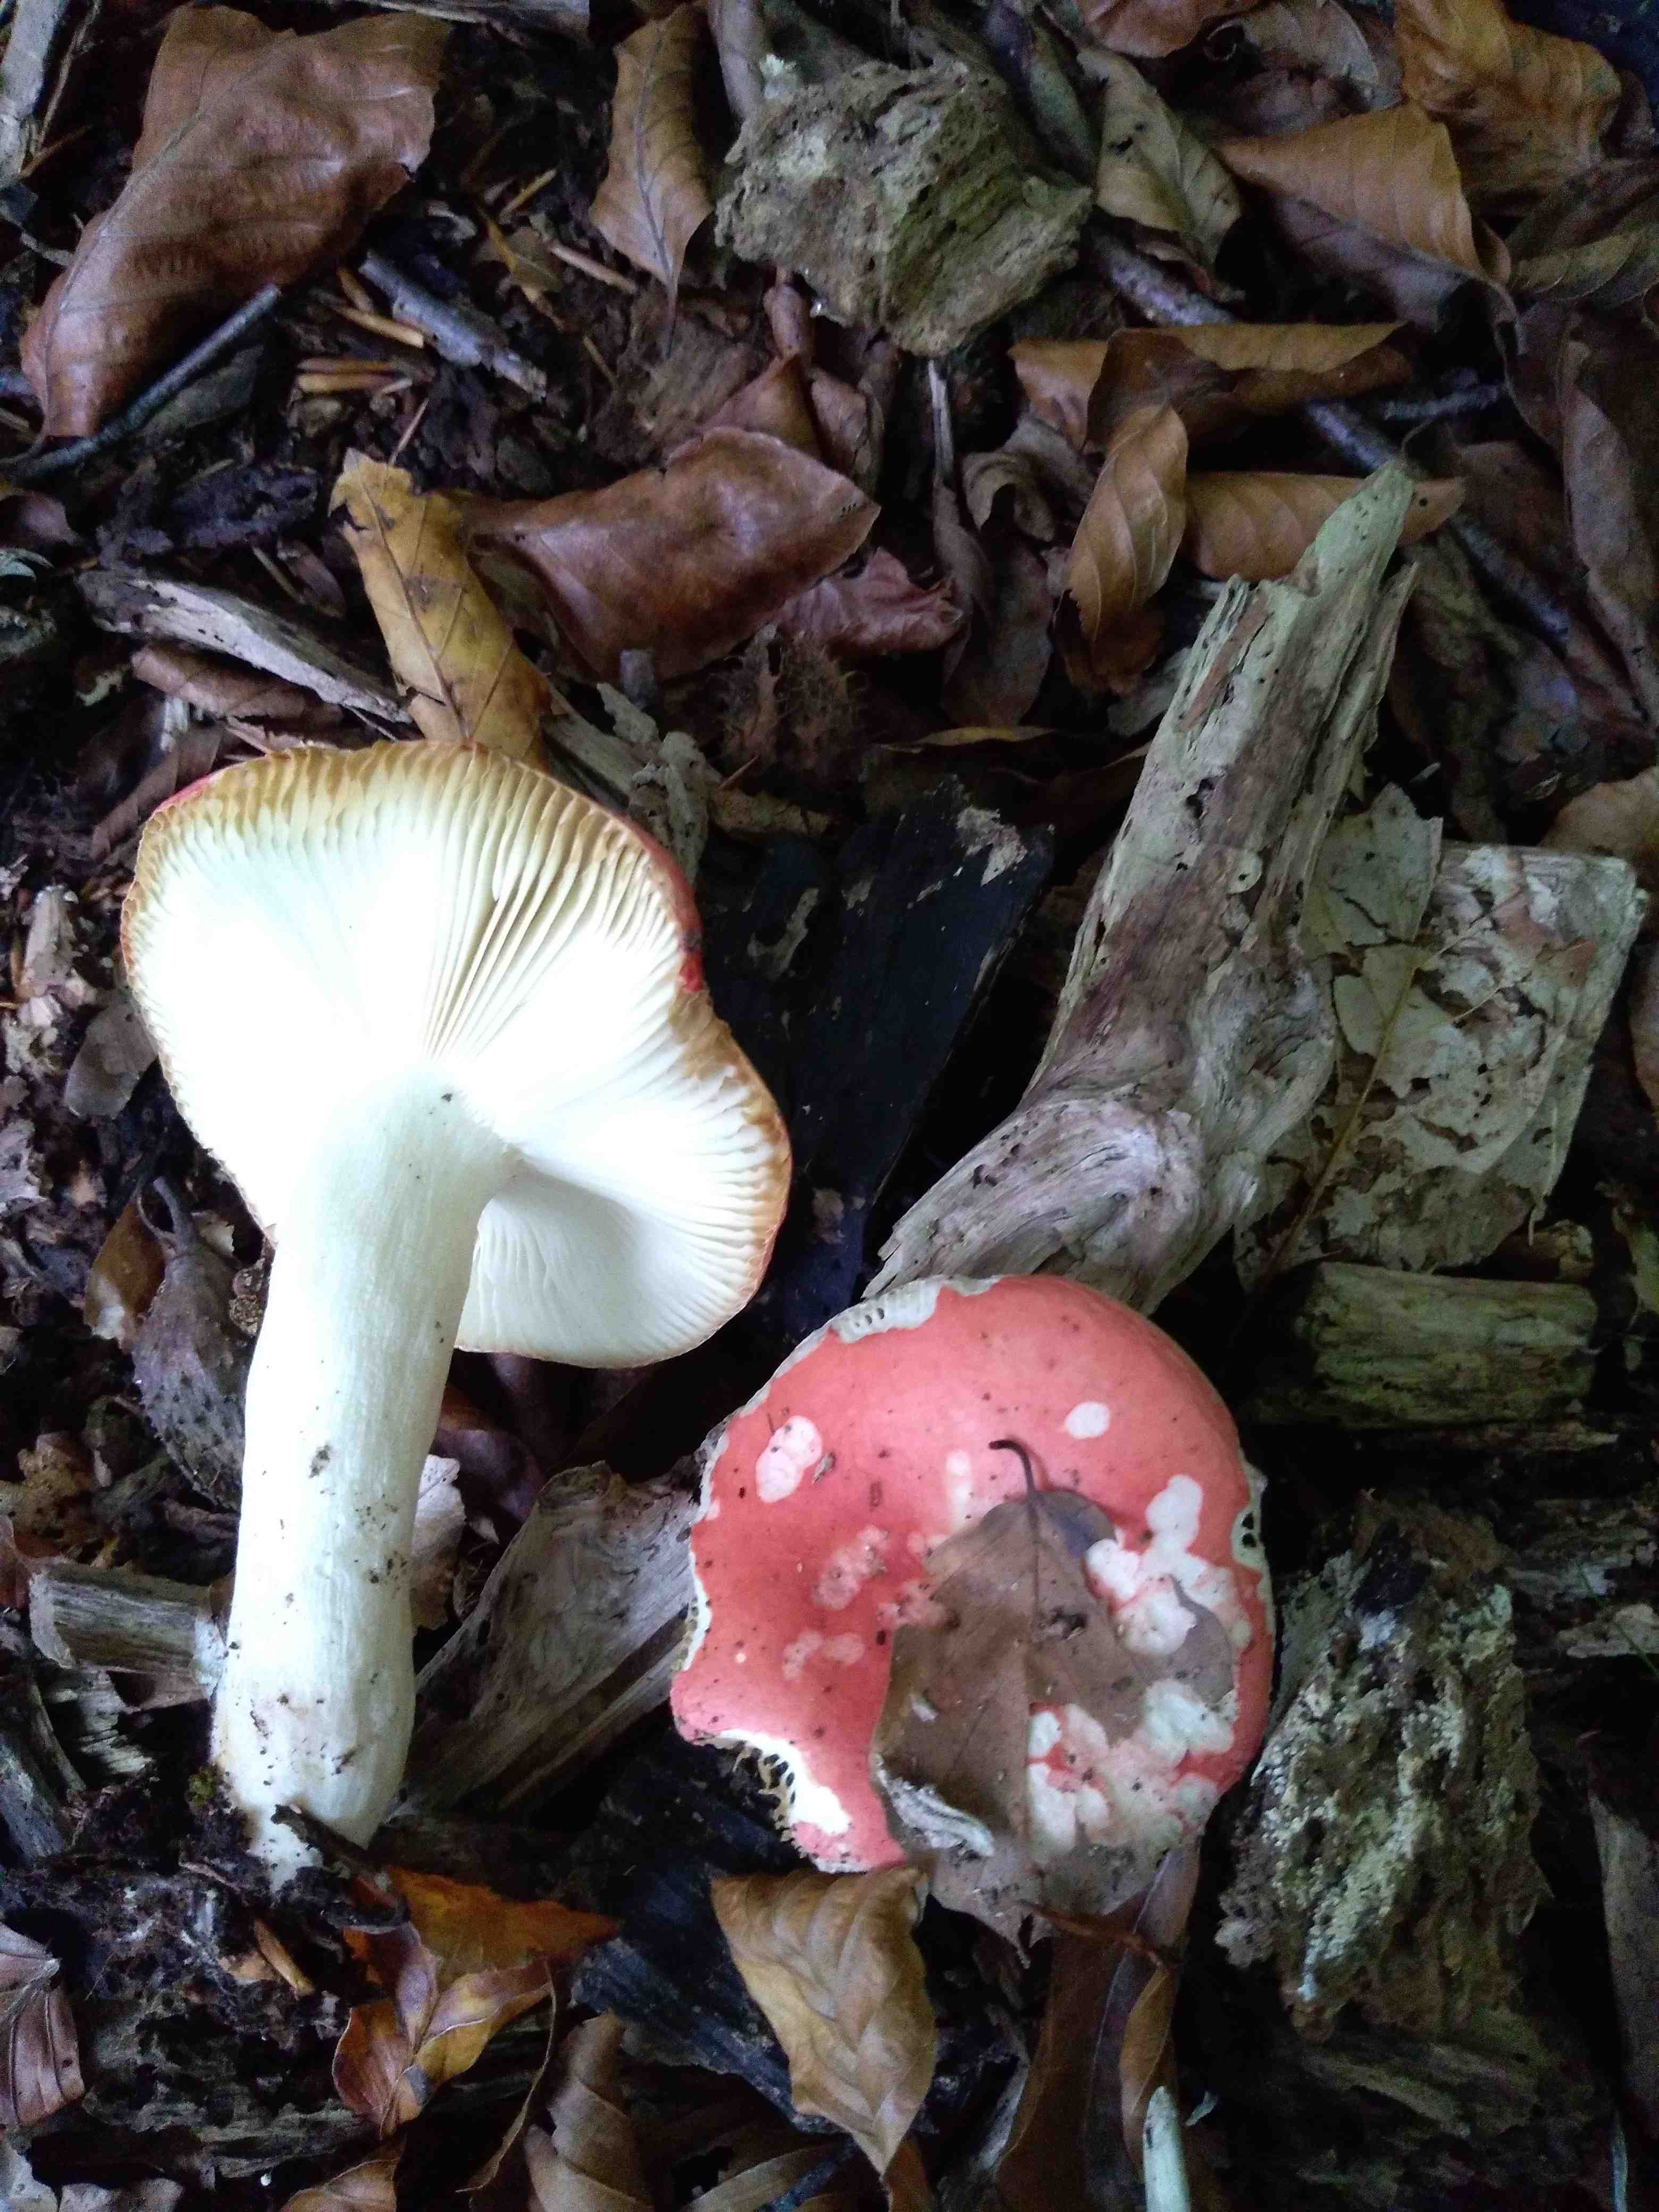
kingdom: Fungi
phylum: Basidiomycota
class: Agaricomycetes
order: Russulales
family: Russulaceae
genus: Russula
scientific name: Russula nobilis
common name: lille gift-skørhat
